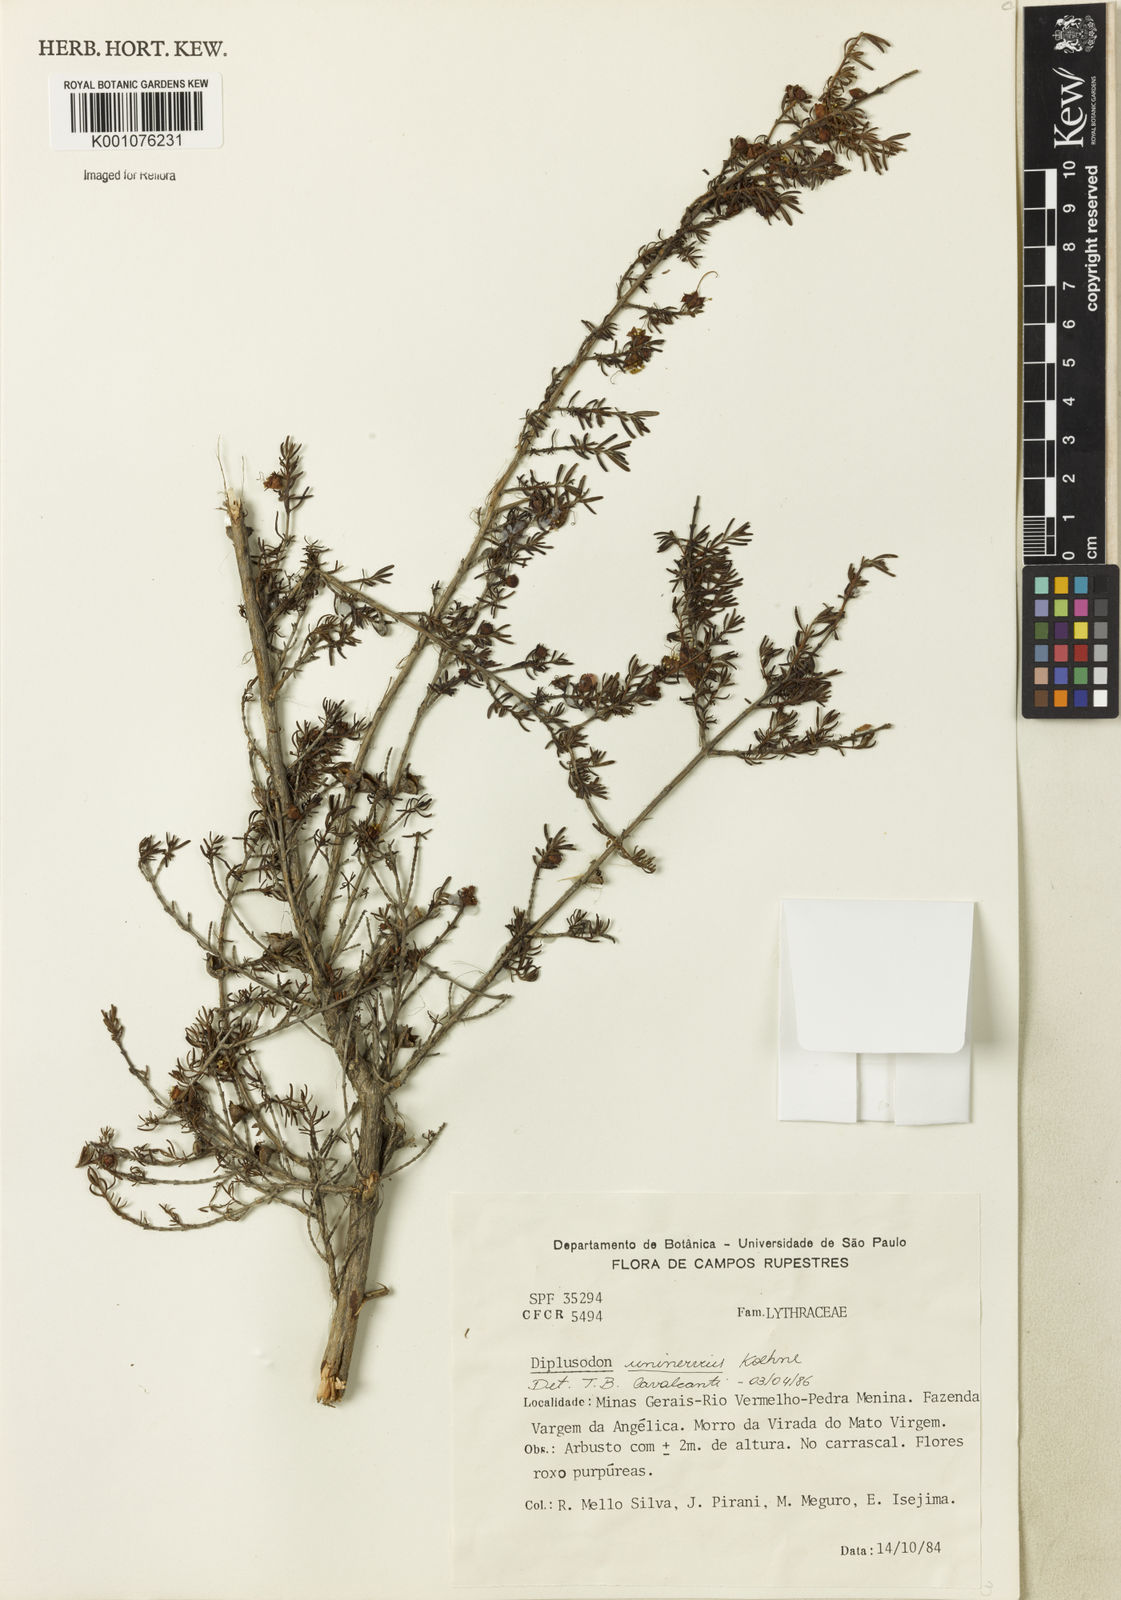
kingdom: Plantae
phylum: Tracheophyta
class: Magnoliopsida
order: Myrtales
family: Lythraceae
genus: Diplusodon
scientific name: Diplusodon uninervius
